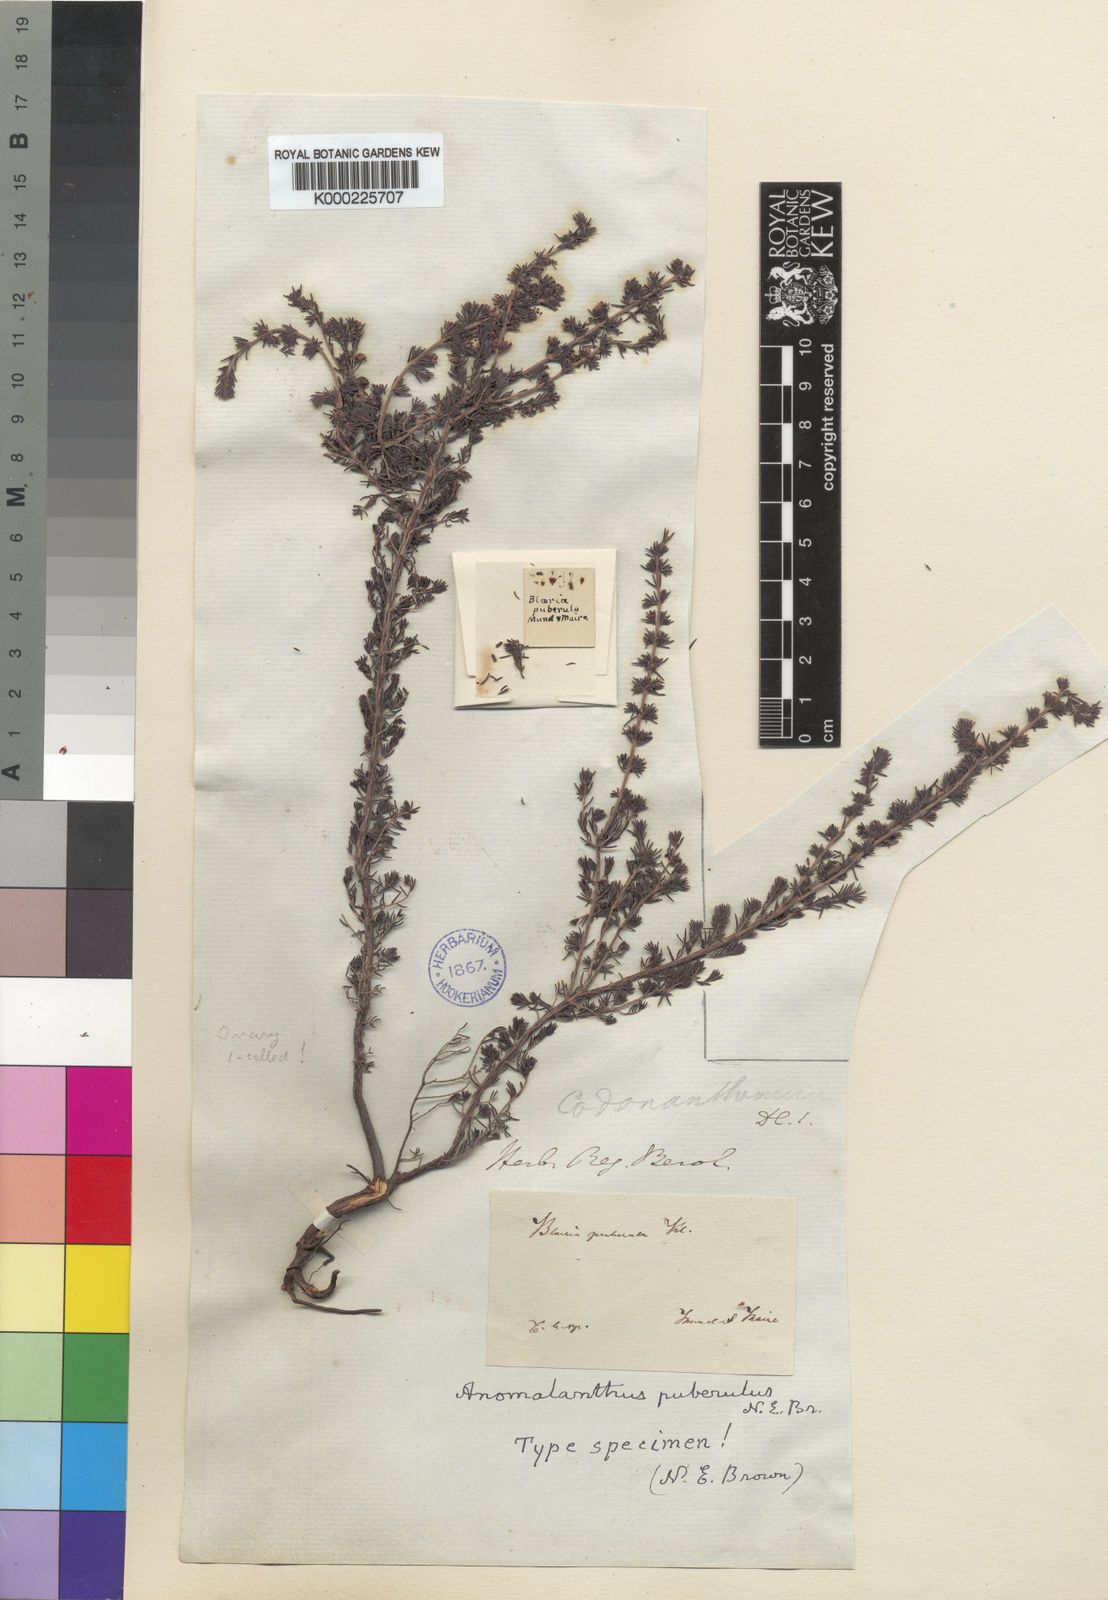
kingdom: Plantae
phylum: Tracheophyta
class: Magnoliopsida
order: Ericales
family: Ericaceae
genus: Erica
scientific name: Erica anguliger
